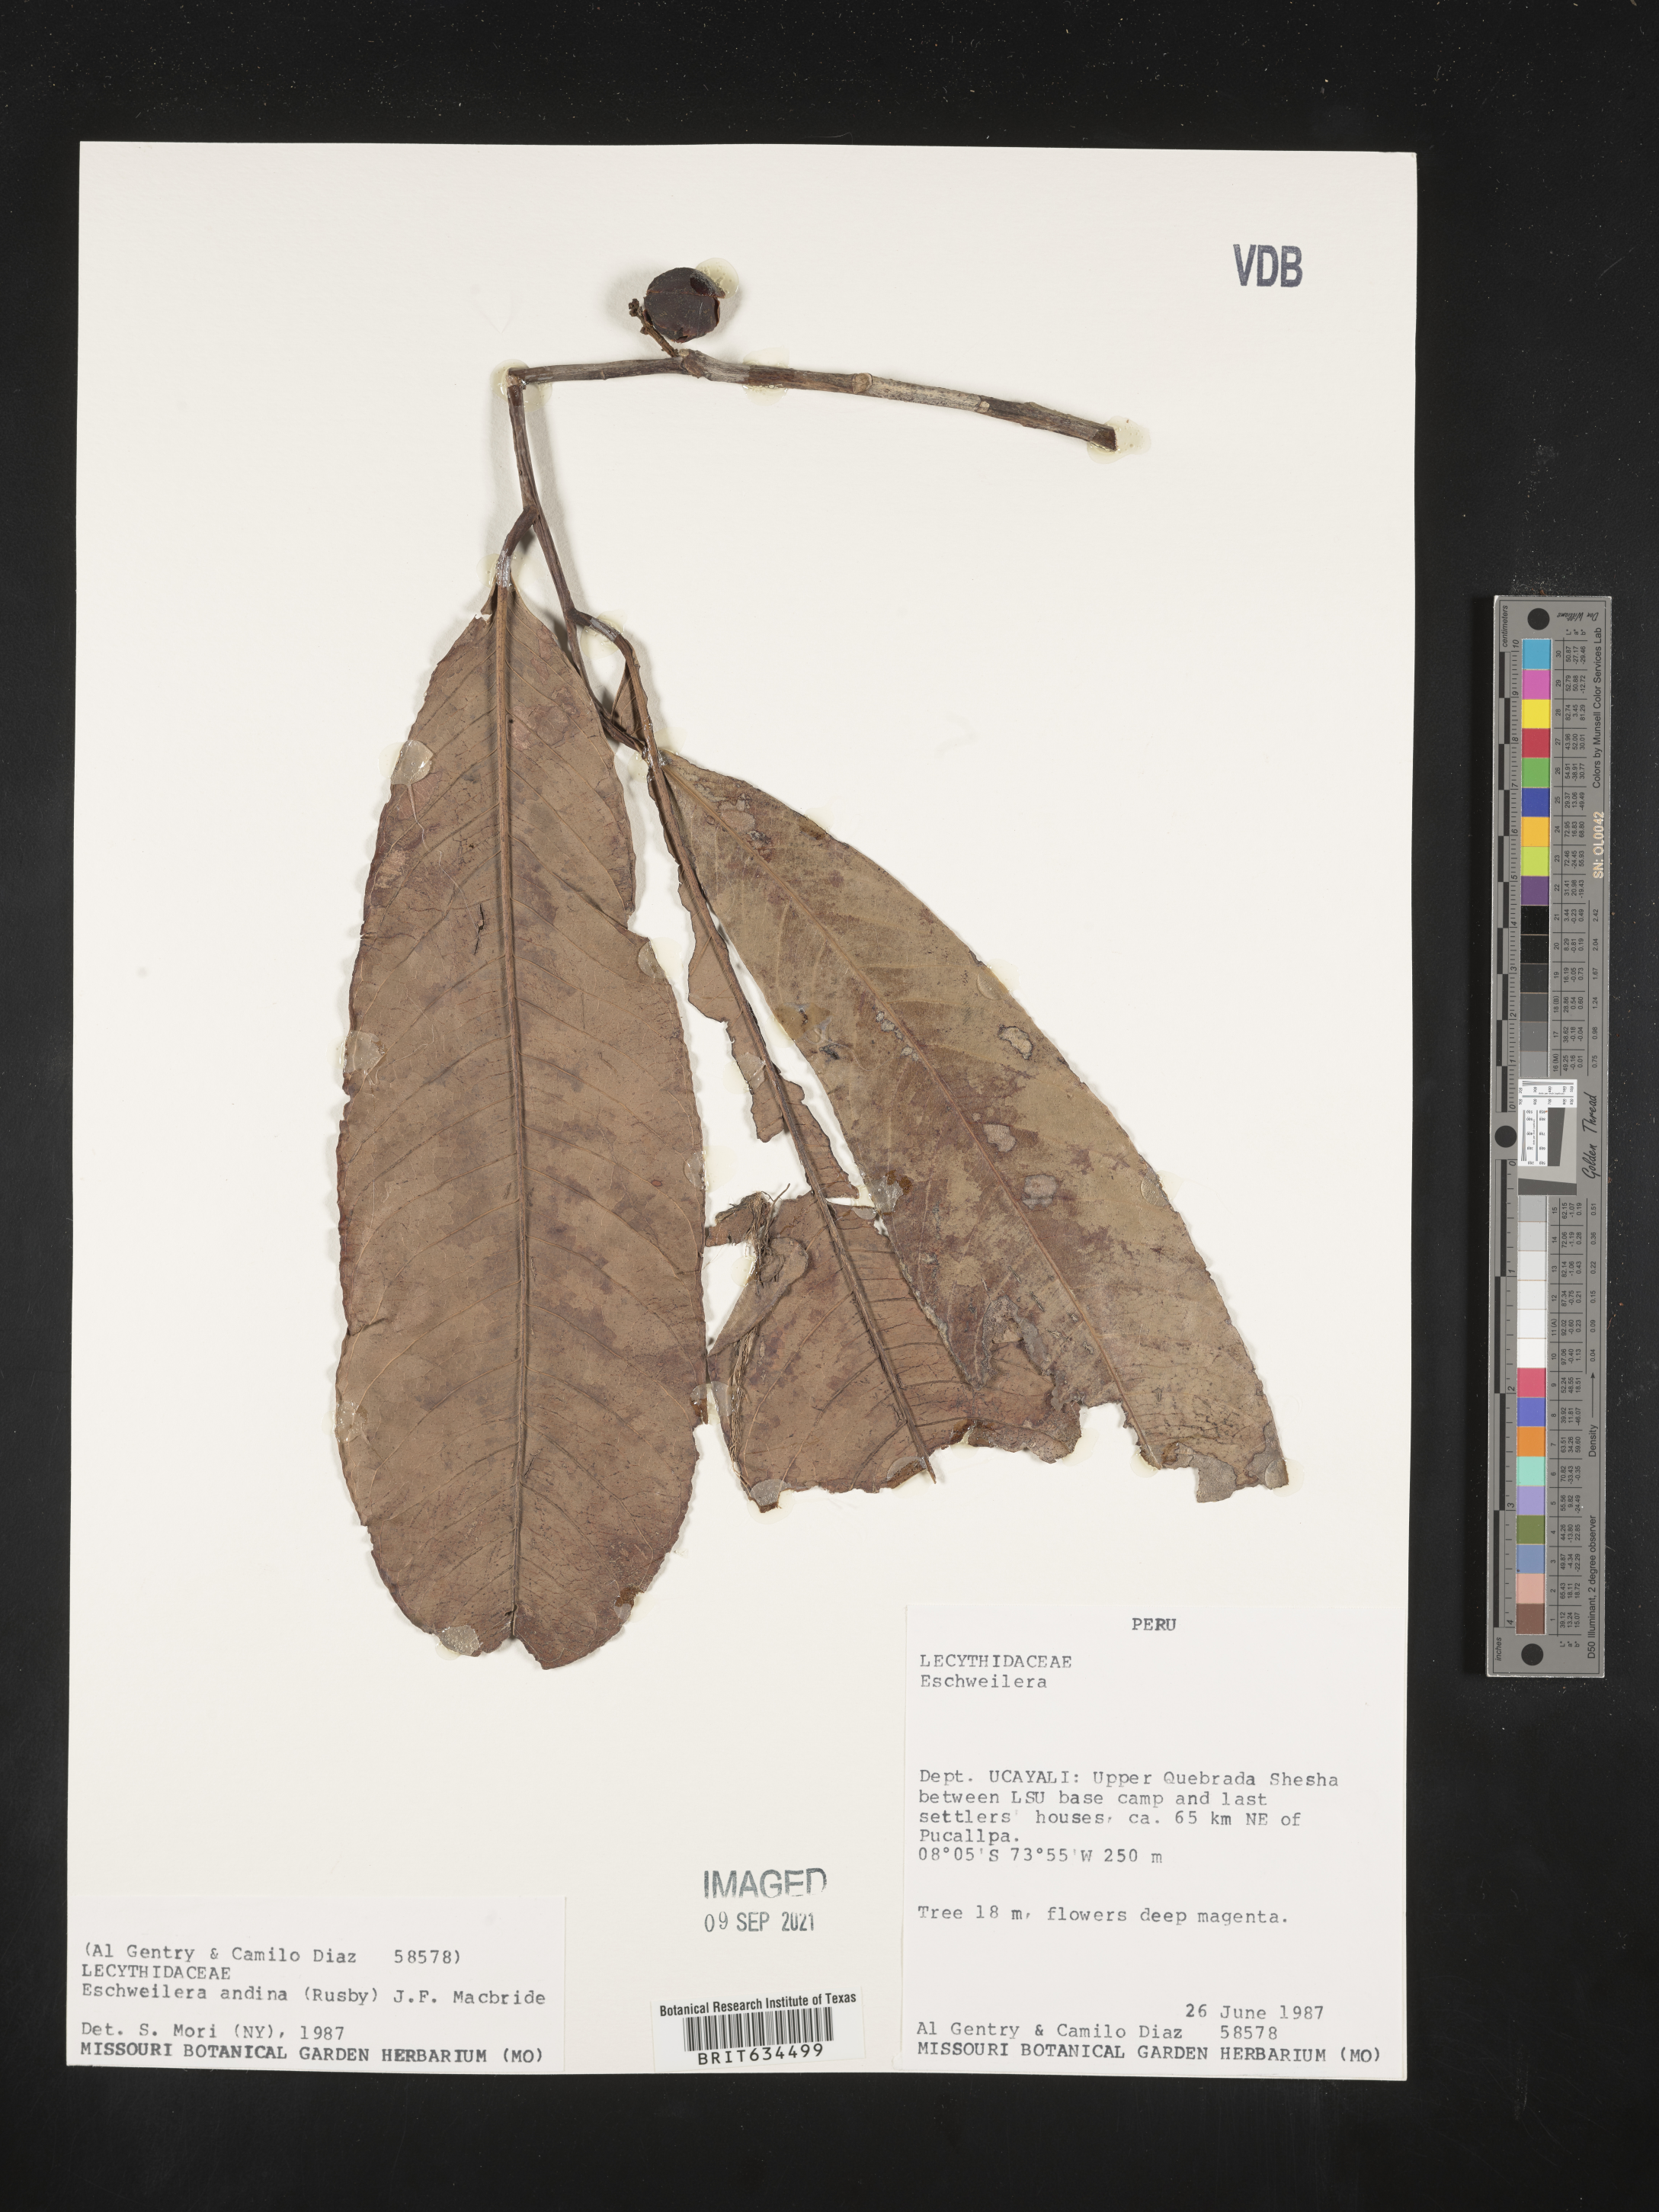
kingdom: Plantae
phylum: Tracheophyta
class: Magnoliopsida
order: Ericales
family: Lecythidaceae
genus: Eschweilera
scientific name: Eschweilera
